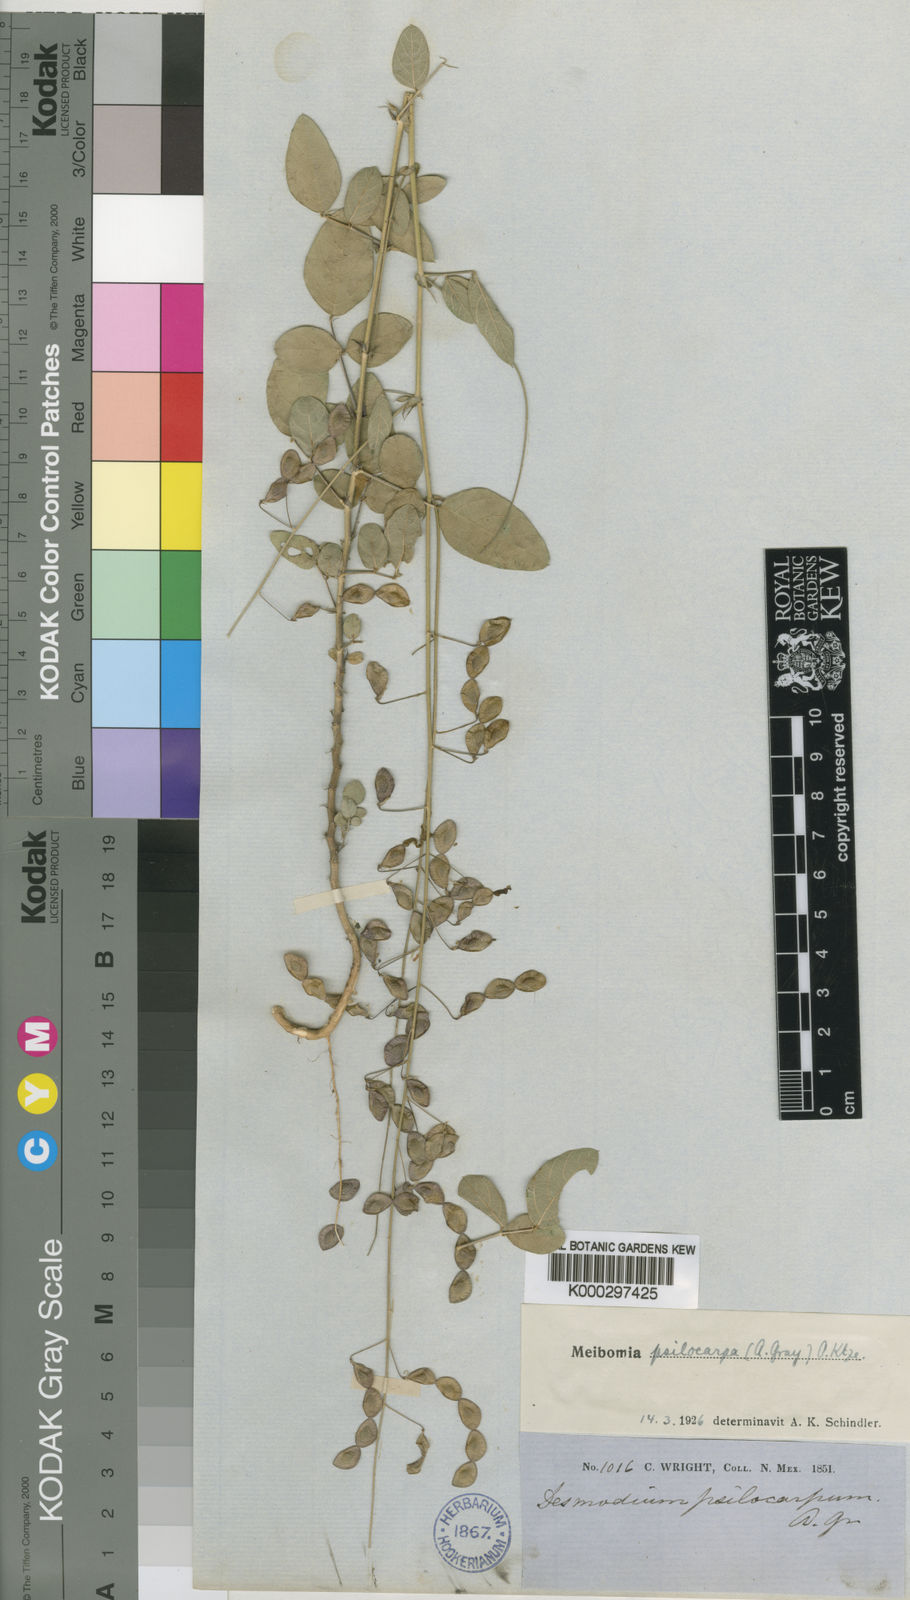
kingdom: Plantae
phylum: Tracheophyta
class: Magnoliopsida
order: Fabales
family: Fabaceae
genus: Desmodium
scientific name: Desmodium psilocarpum
